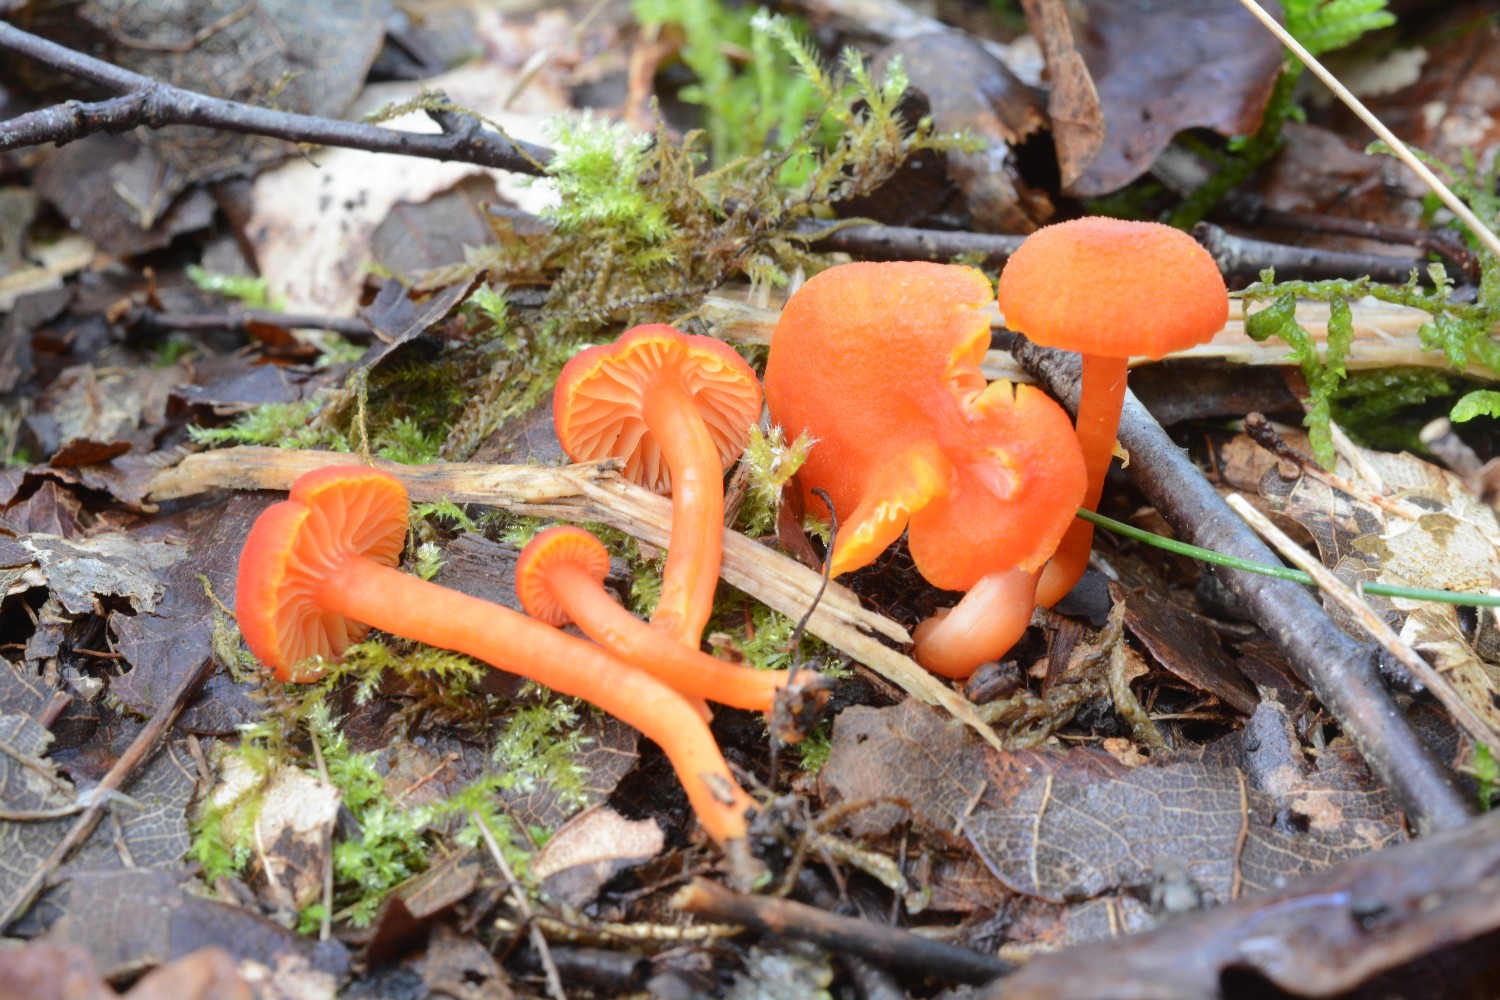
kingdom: Fungi
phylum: Basidiomycota
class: Agaricomycetes
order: Agaricales
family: Hygrophoraceae
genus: Hygrocybe
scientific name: Hygrocybe miniata
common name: mønje-vokshat
